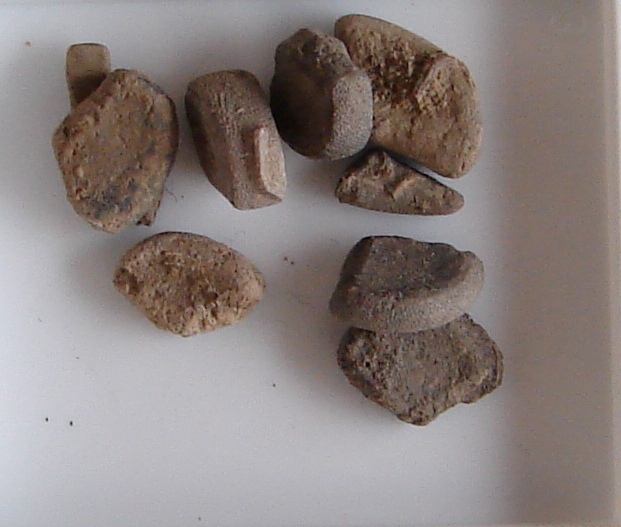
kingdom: Animalia
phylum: Echinodermata
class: Asteroidea
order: Paxillosida
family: Astropectinidae
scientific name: Astropectinidae
